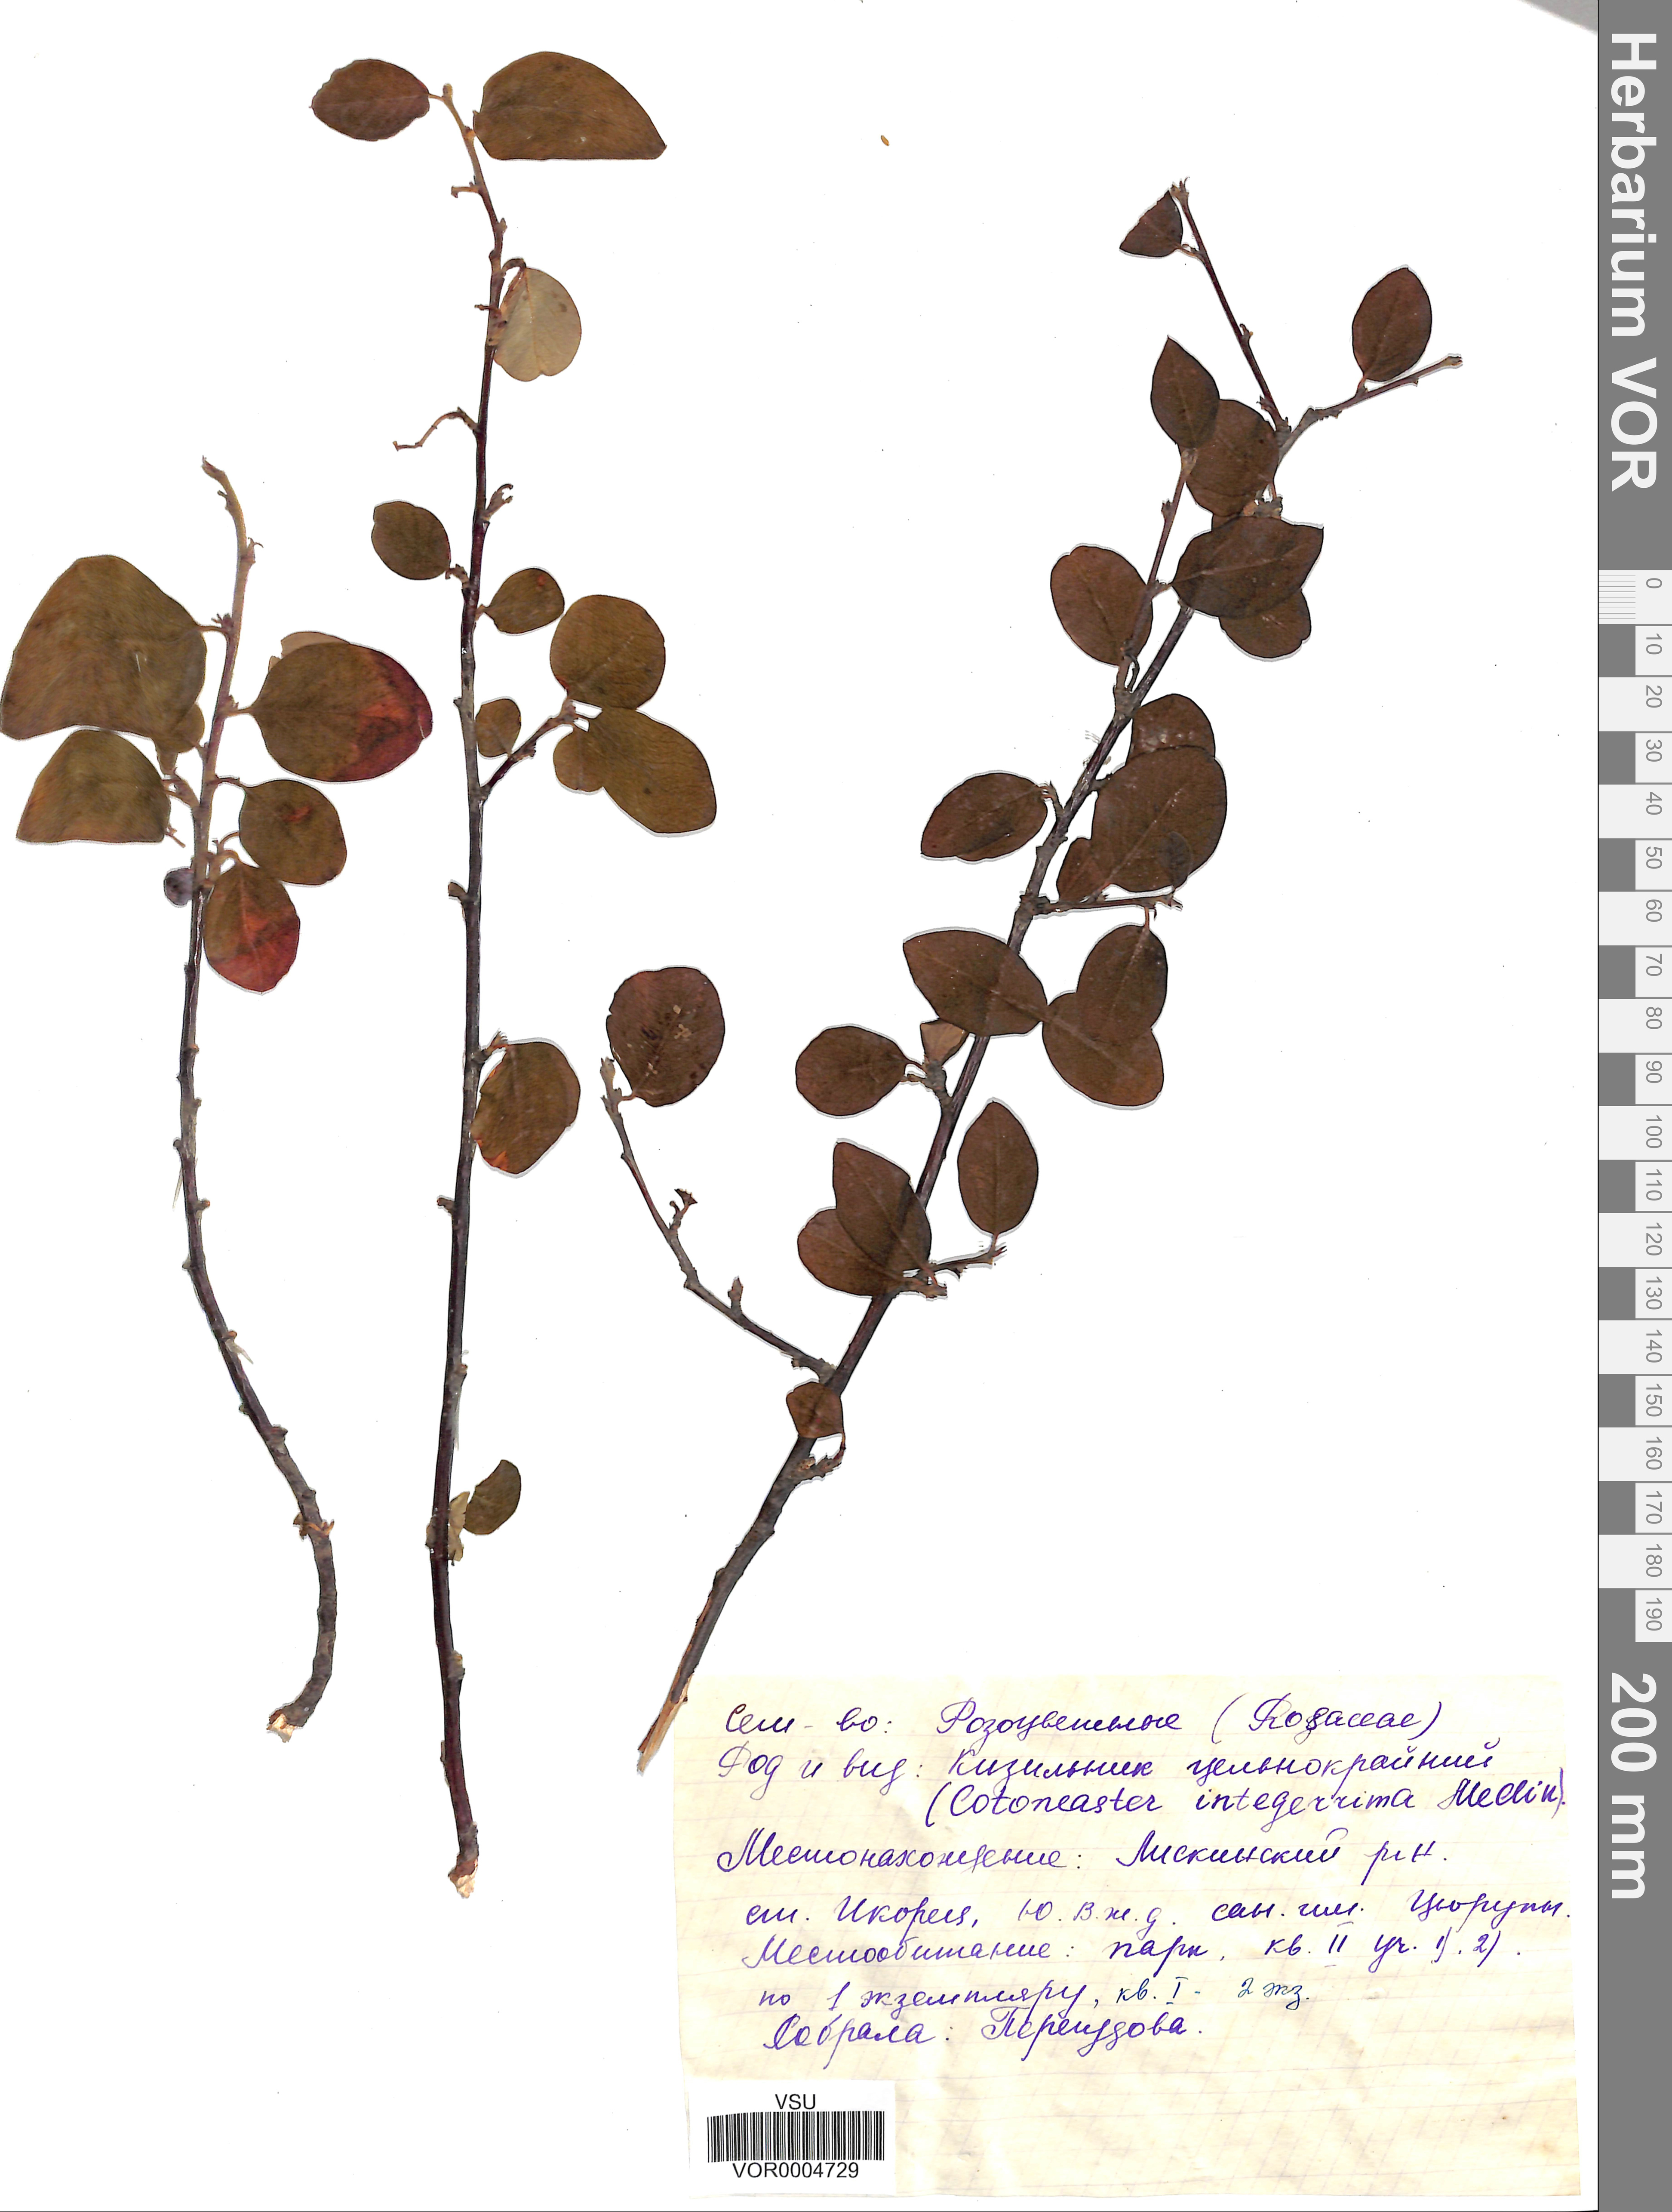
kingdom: Plantae
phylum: Tracheophyta
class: Magnoliopsida
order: Rosales
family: Rosaceae
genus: Cotoneaster
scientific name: Cotoneaster integerrimus
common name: Wild cotoneaster
